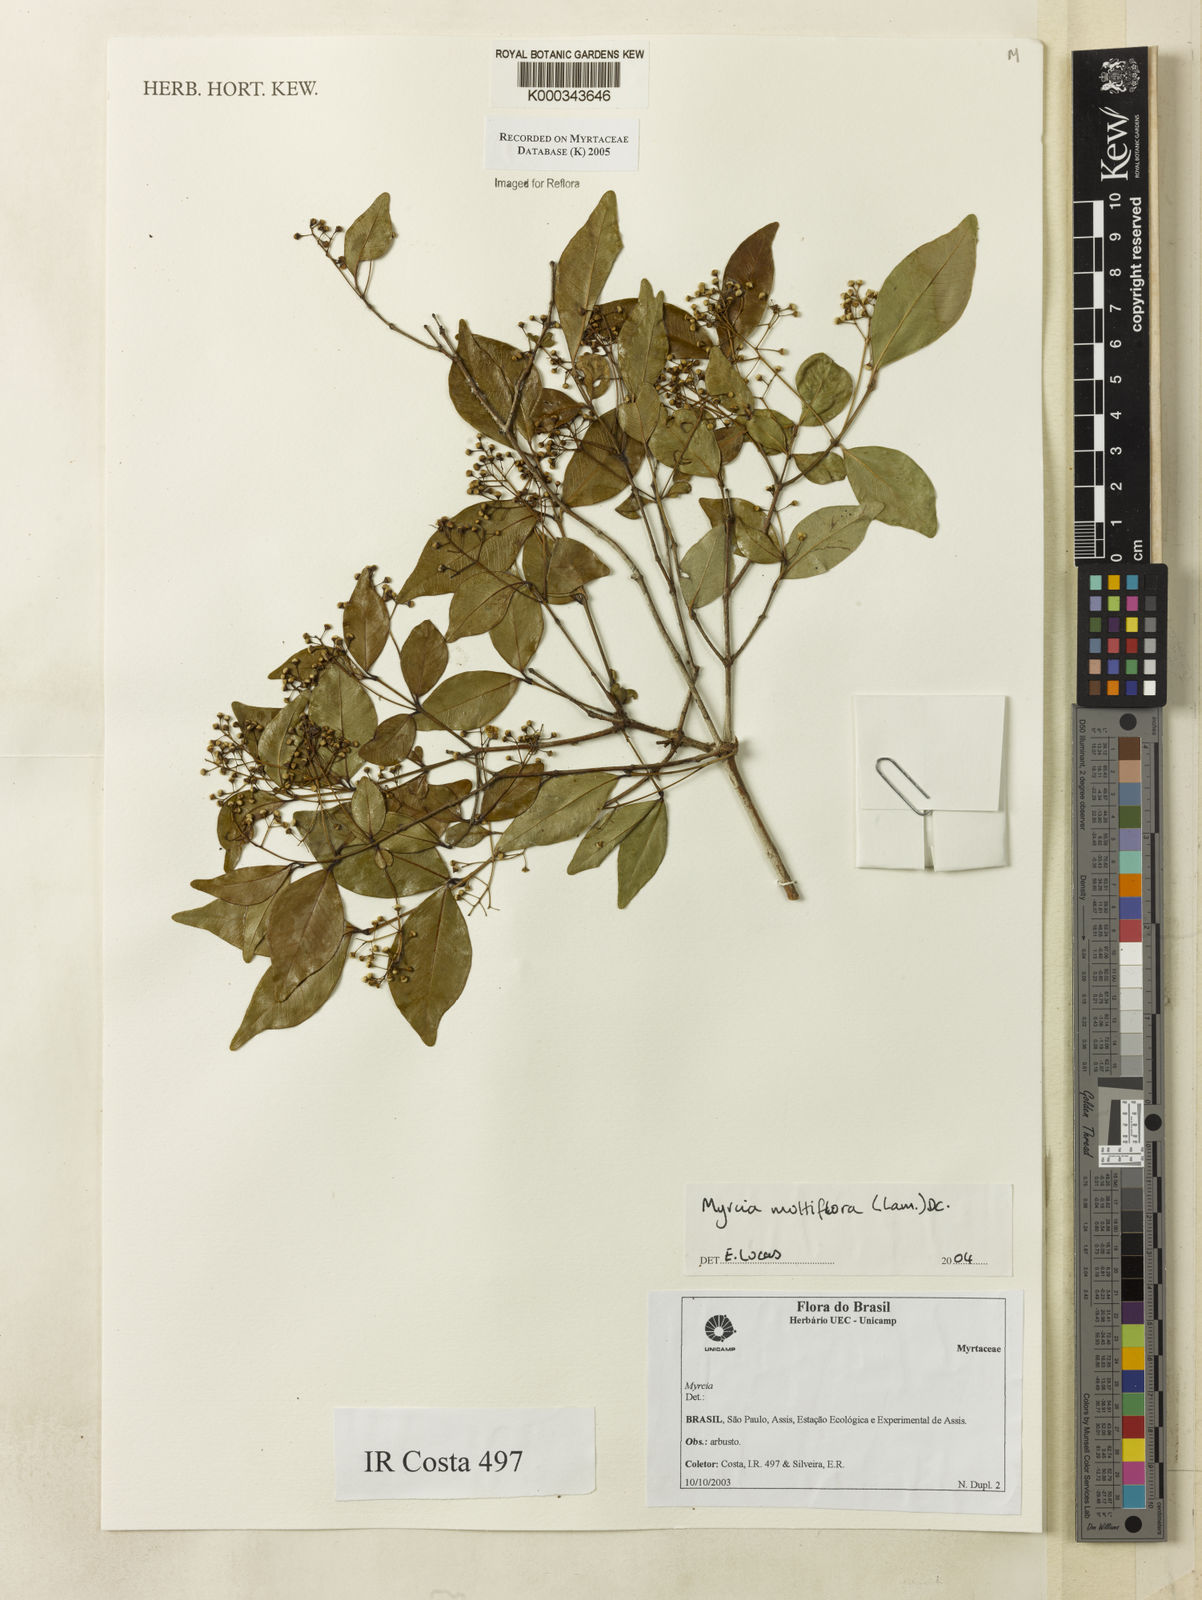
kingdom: Plantae
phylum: Tracheophyta
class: Magnoliopsida
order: Myrtales
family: Myrtaceae
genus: Myrcia
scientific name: Myrcia multiflora
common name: Pedra hume
